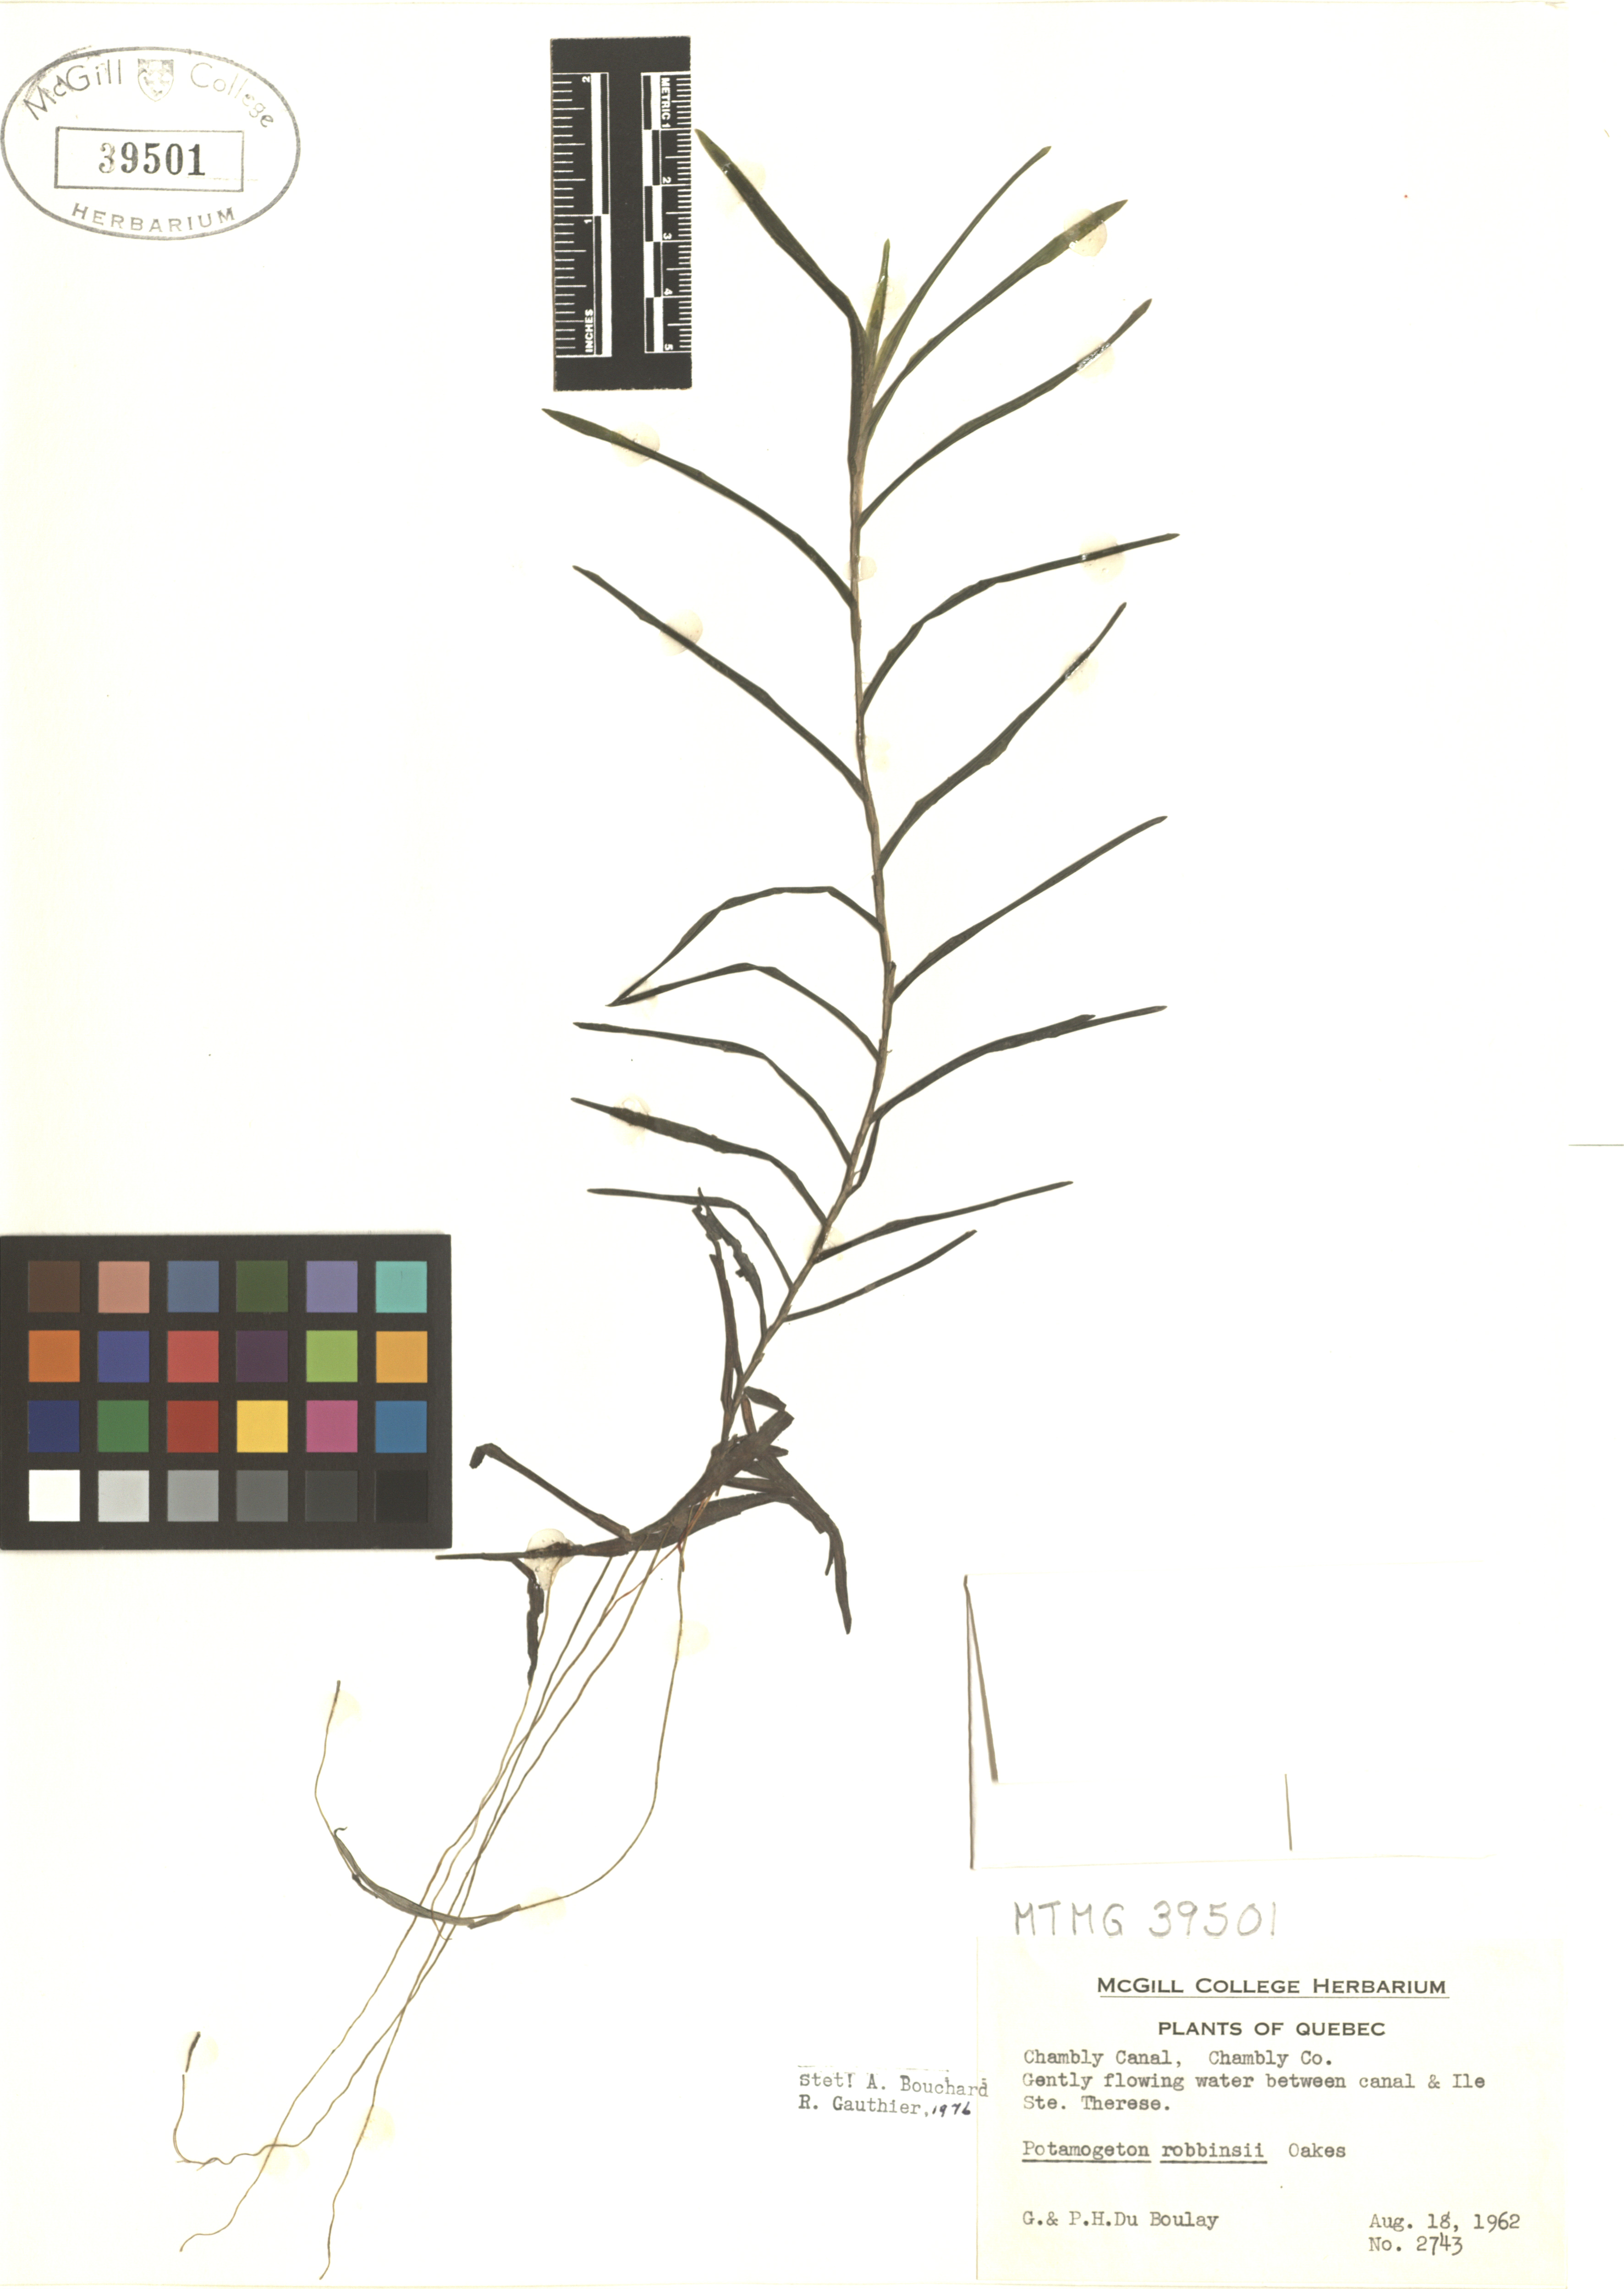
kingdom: Plantae
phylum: Tracheophyta
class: Liliopsida
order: Alismatales
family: Potamogetonaceae
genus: Potamogeton
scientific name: Potamogeton robbinsii
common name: Fern pondweed
